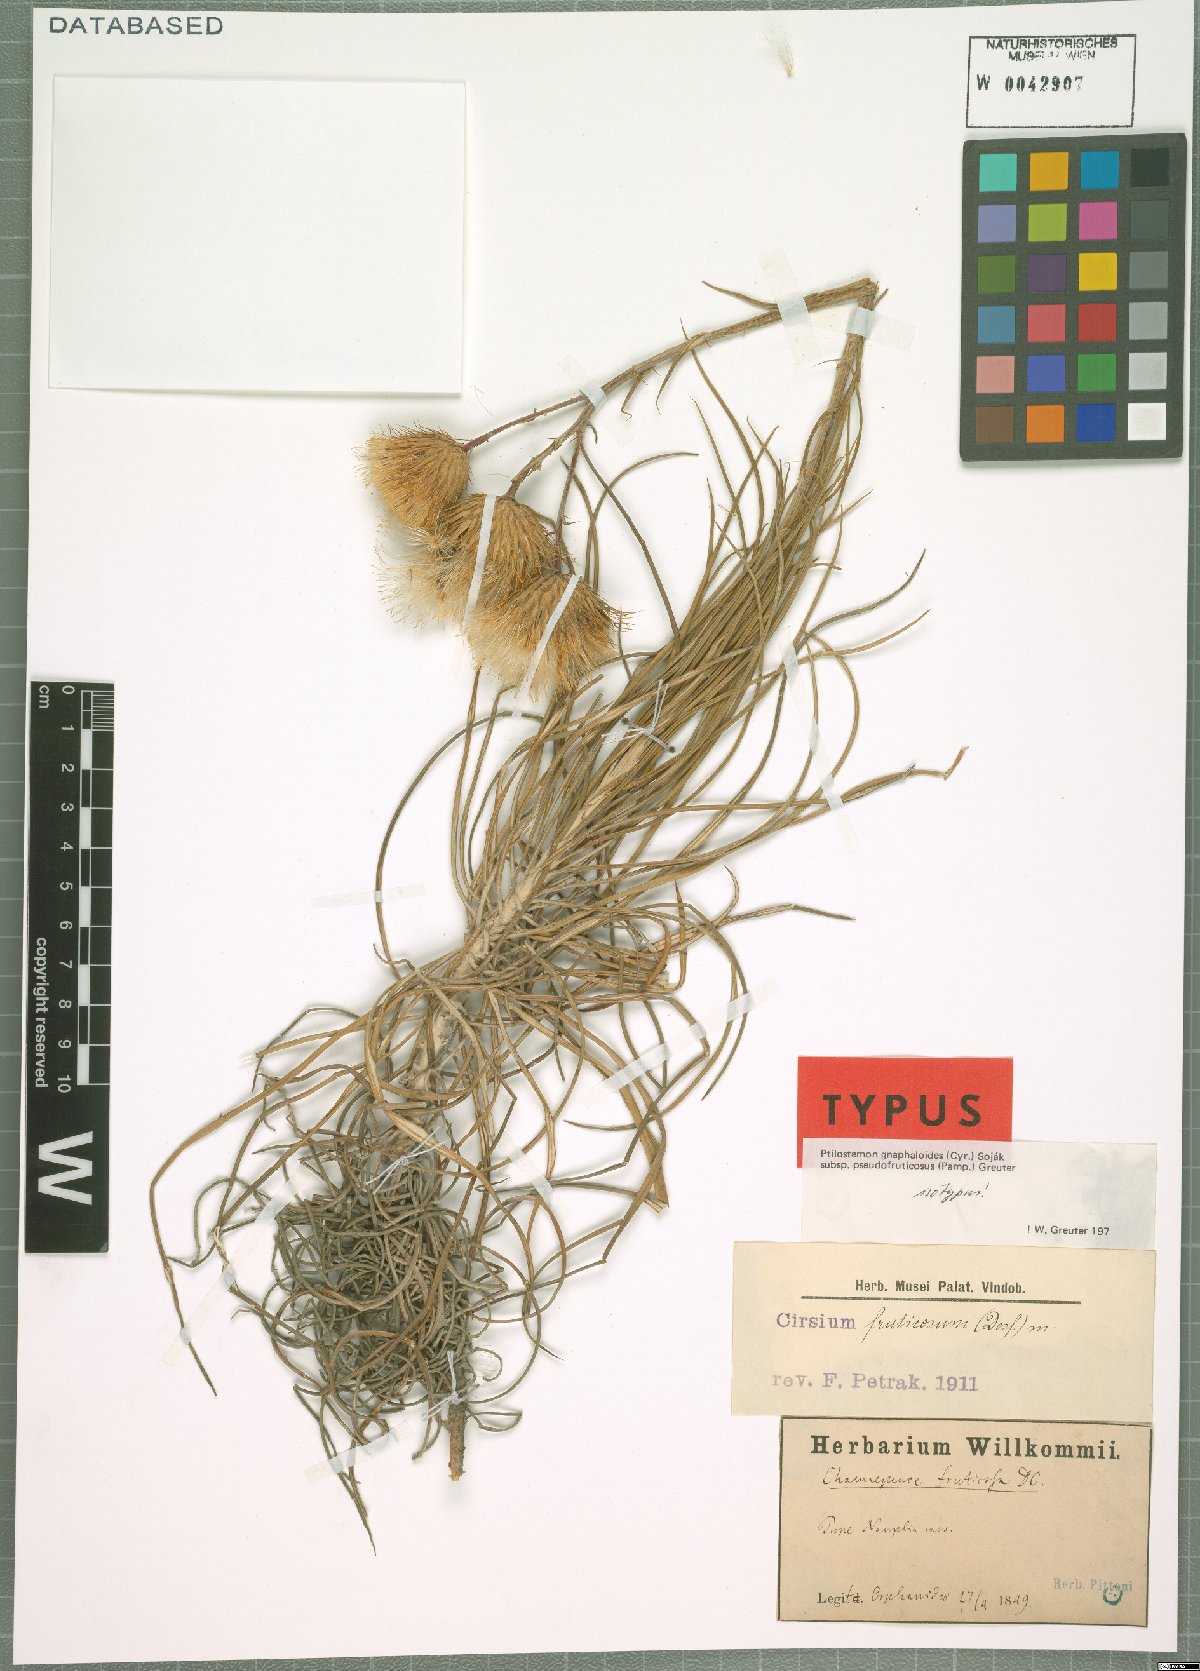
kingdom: Plantae
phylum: Tracheophyta
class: Magnoliopsida
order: Asterales
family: Asteraceae
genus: Ptilostemon
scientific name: Ptilostemon gnaphaloides
